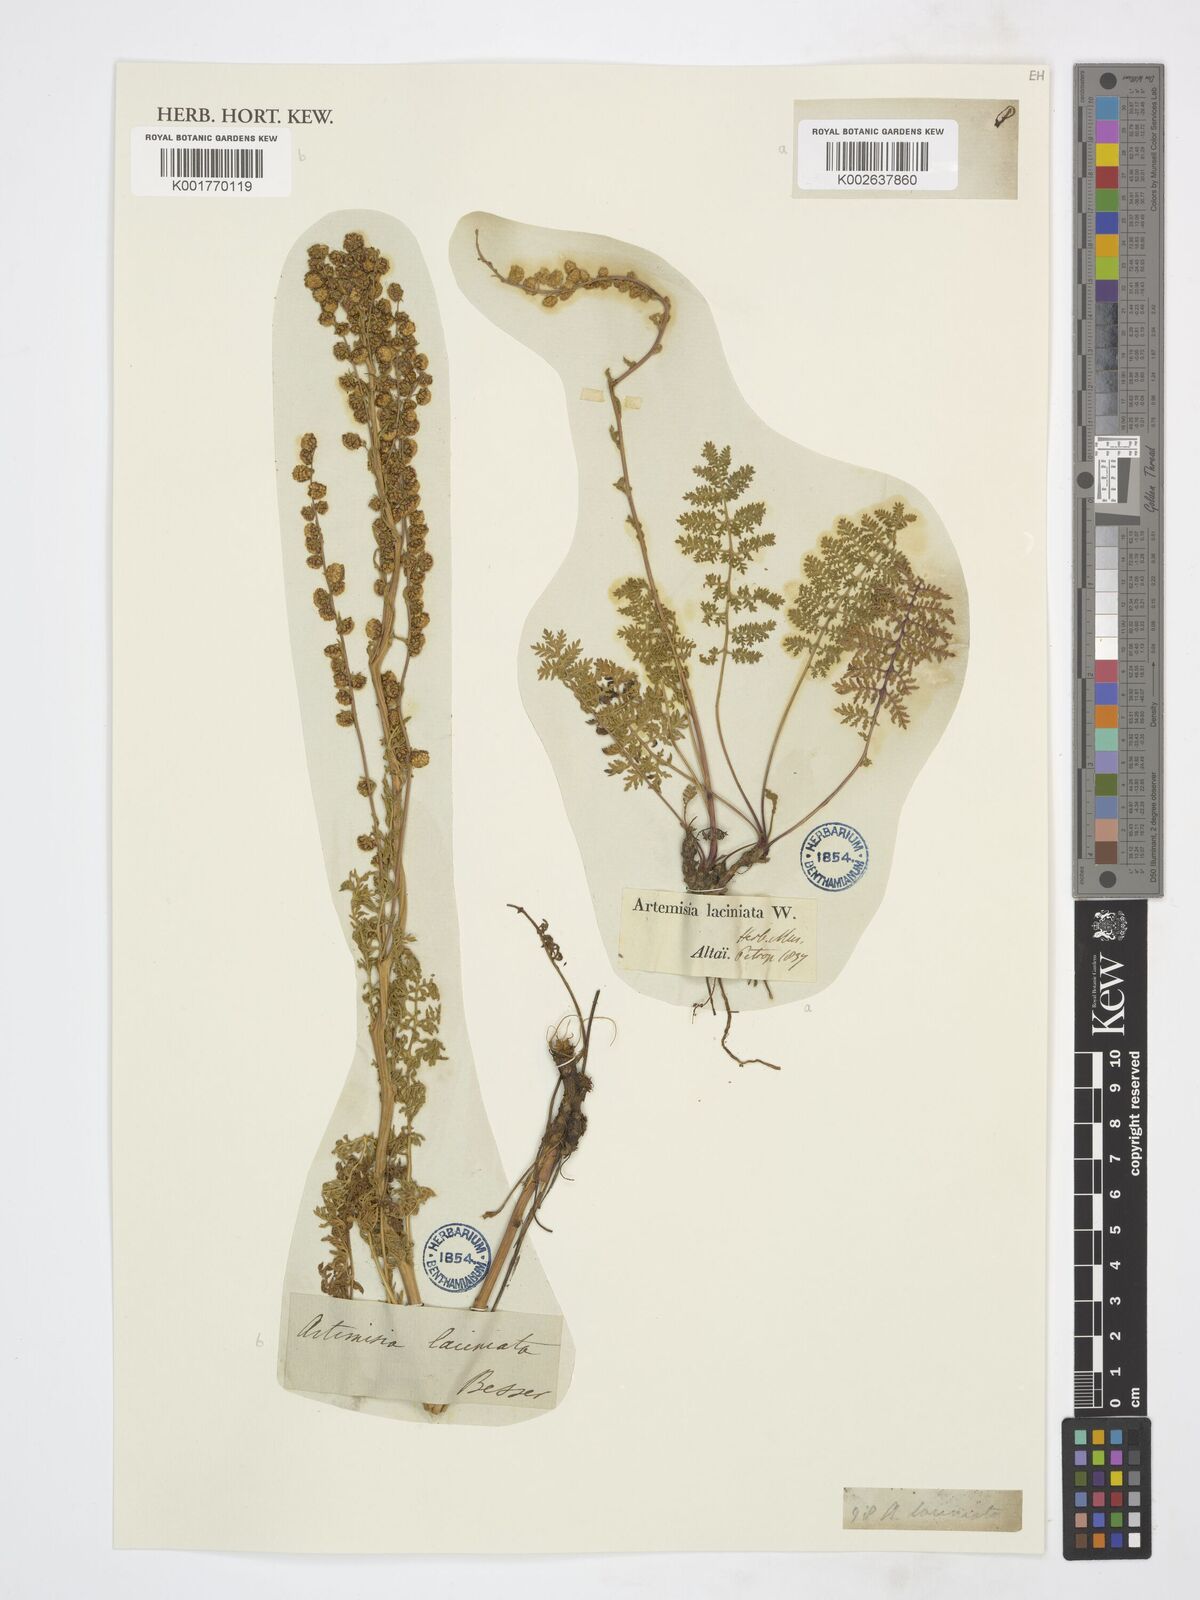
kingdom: Plantae
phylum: Tracheophyta
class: Magnoliopsida
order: Asterales
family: Asteraceae
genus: Artemisia
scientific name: Artemisia laciniata
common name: Siberian wormwood
